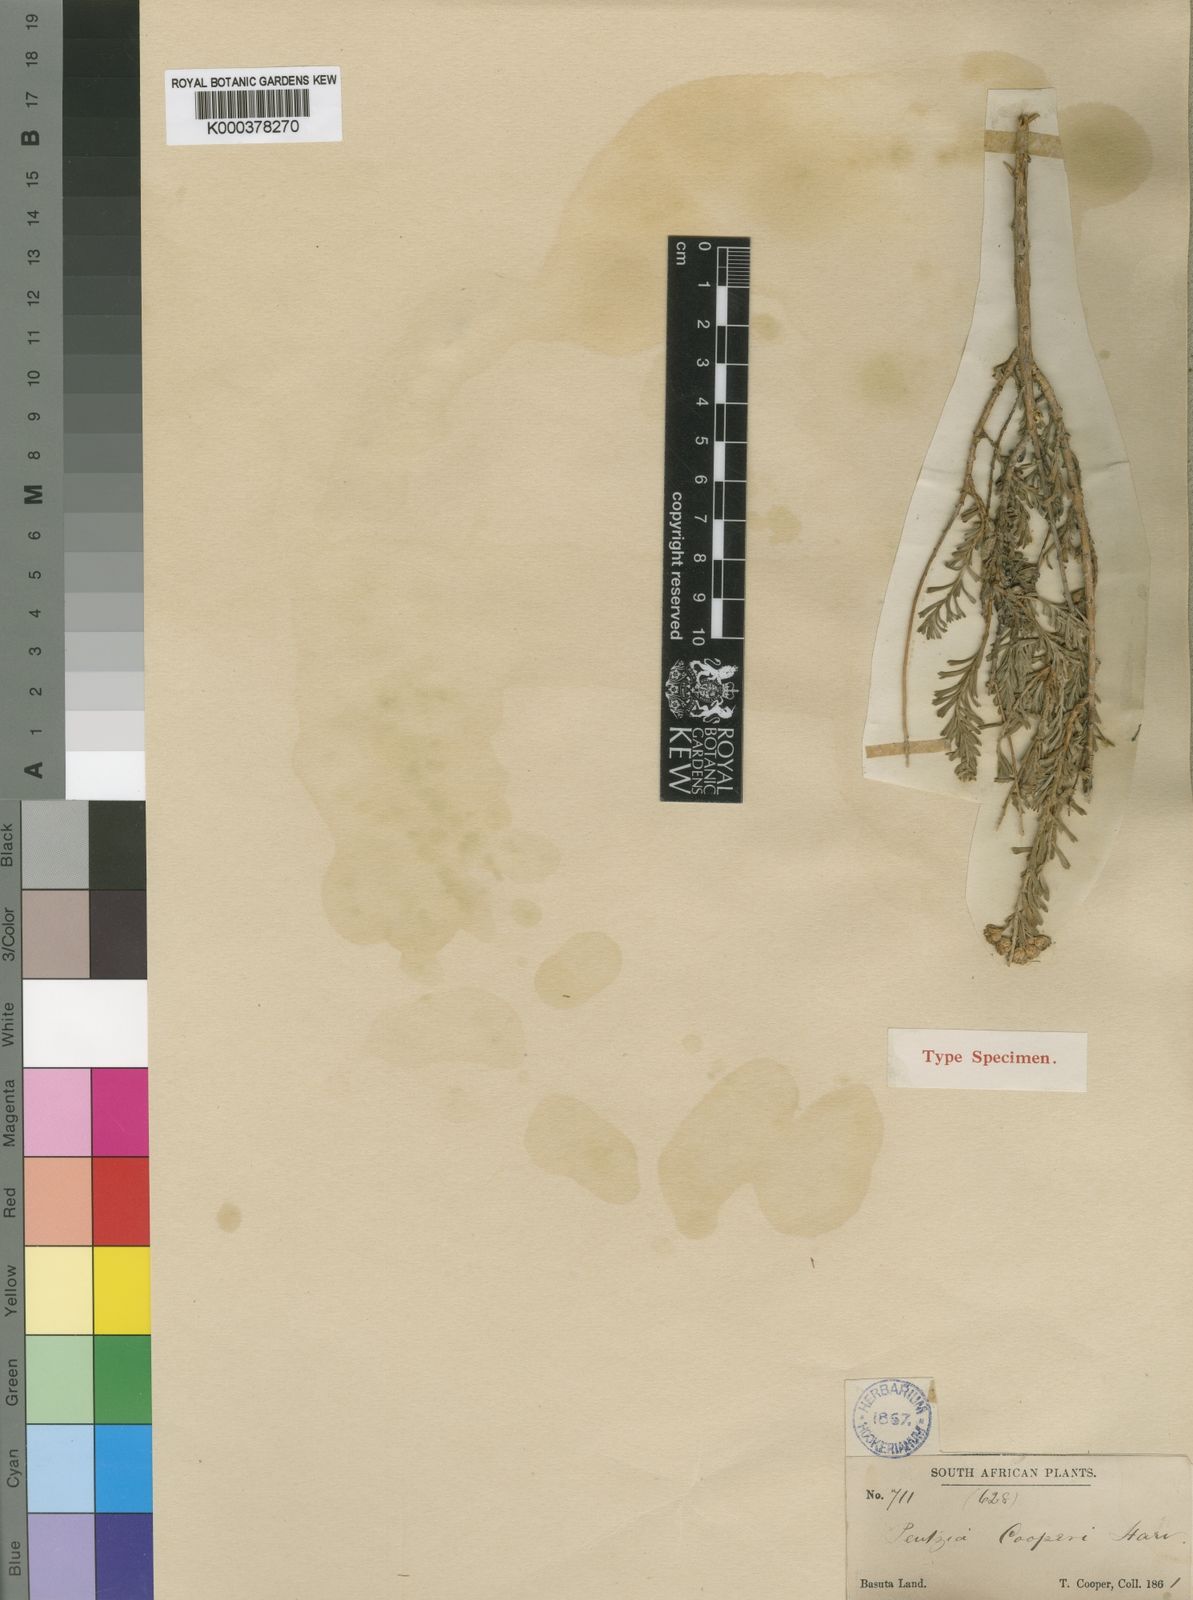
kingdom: Plantae
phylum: Tracheophyta
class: Magnoliopsida
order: Asterales
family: Asteraceae
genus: Pentzia
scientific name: Pentzia cooperi
